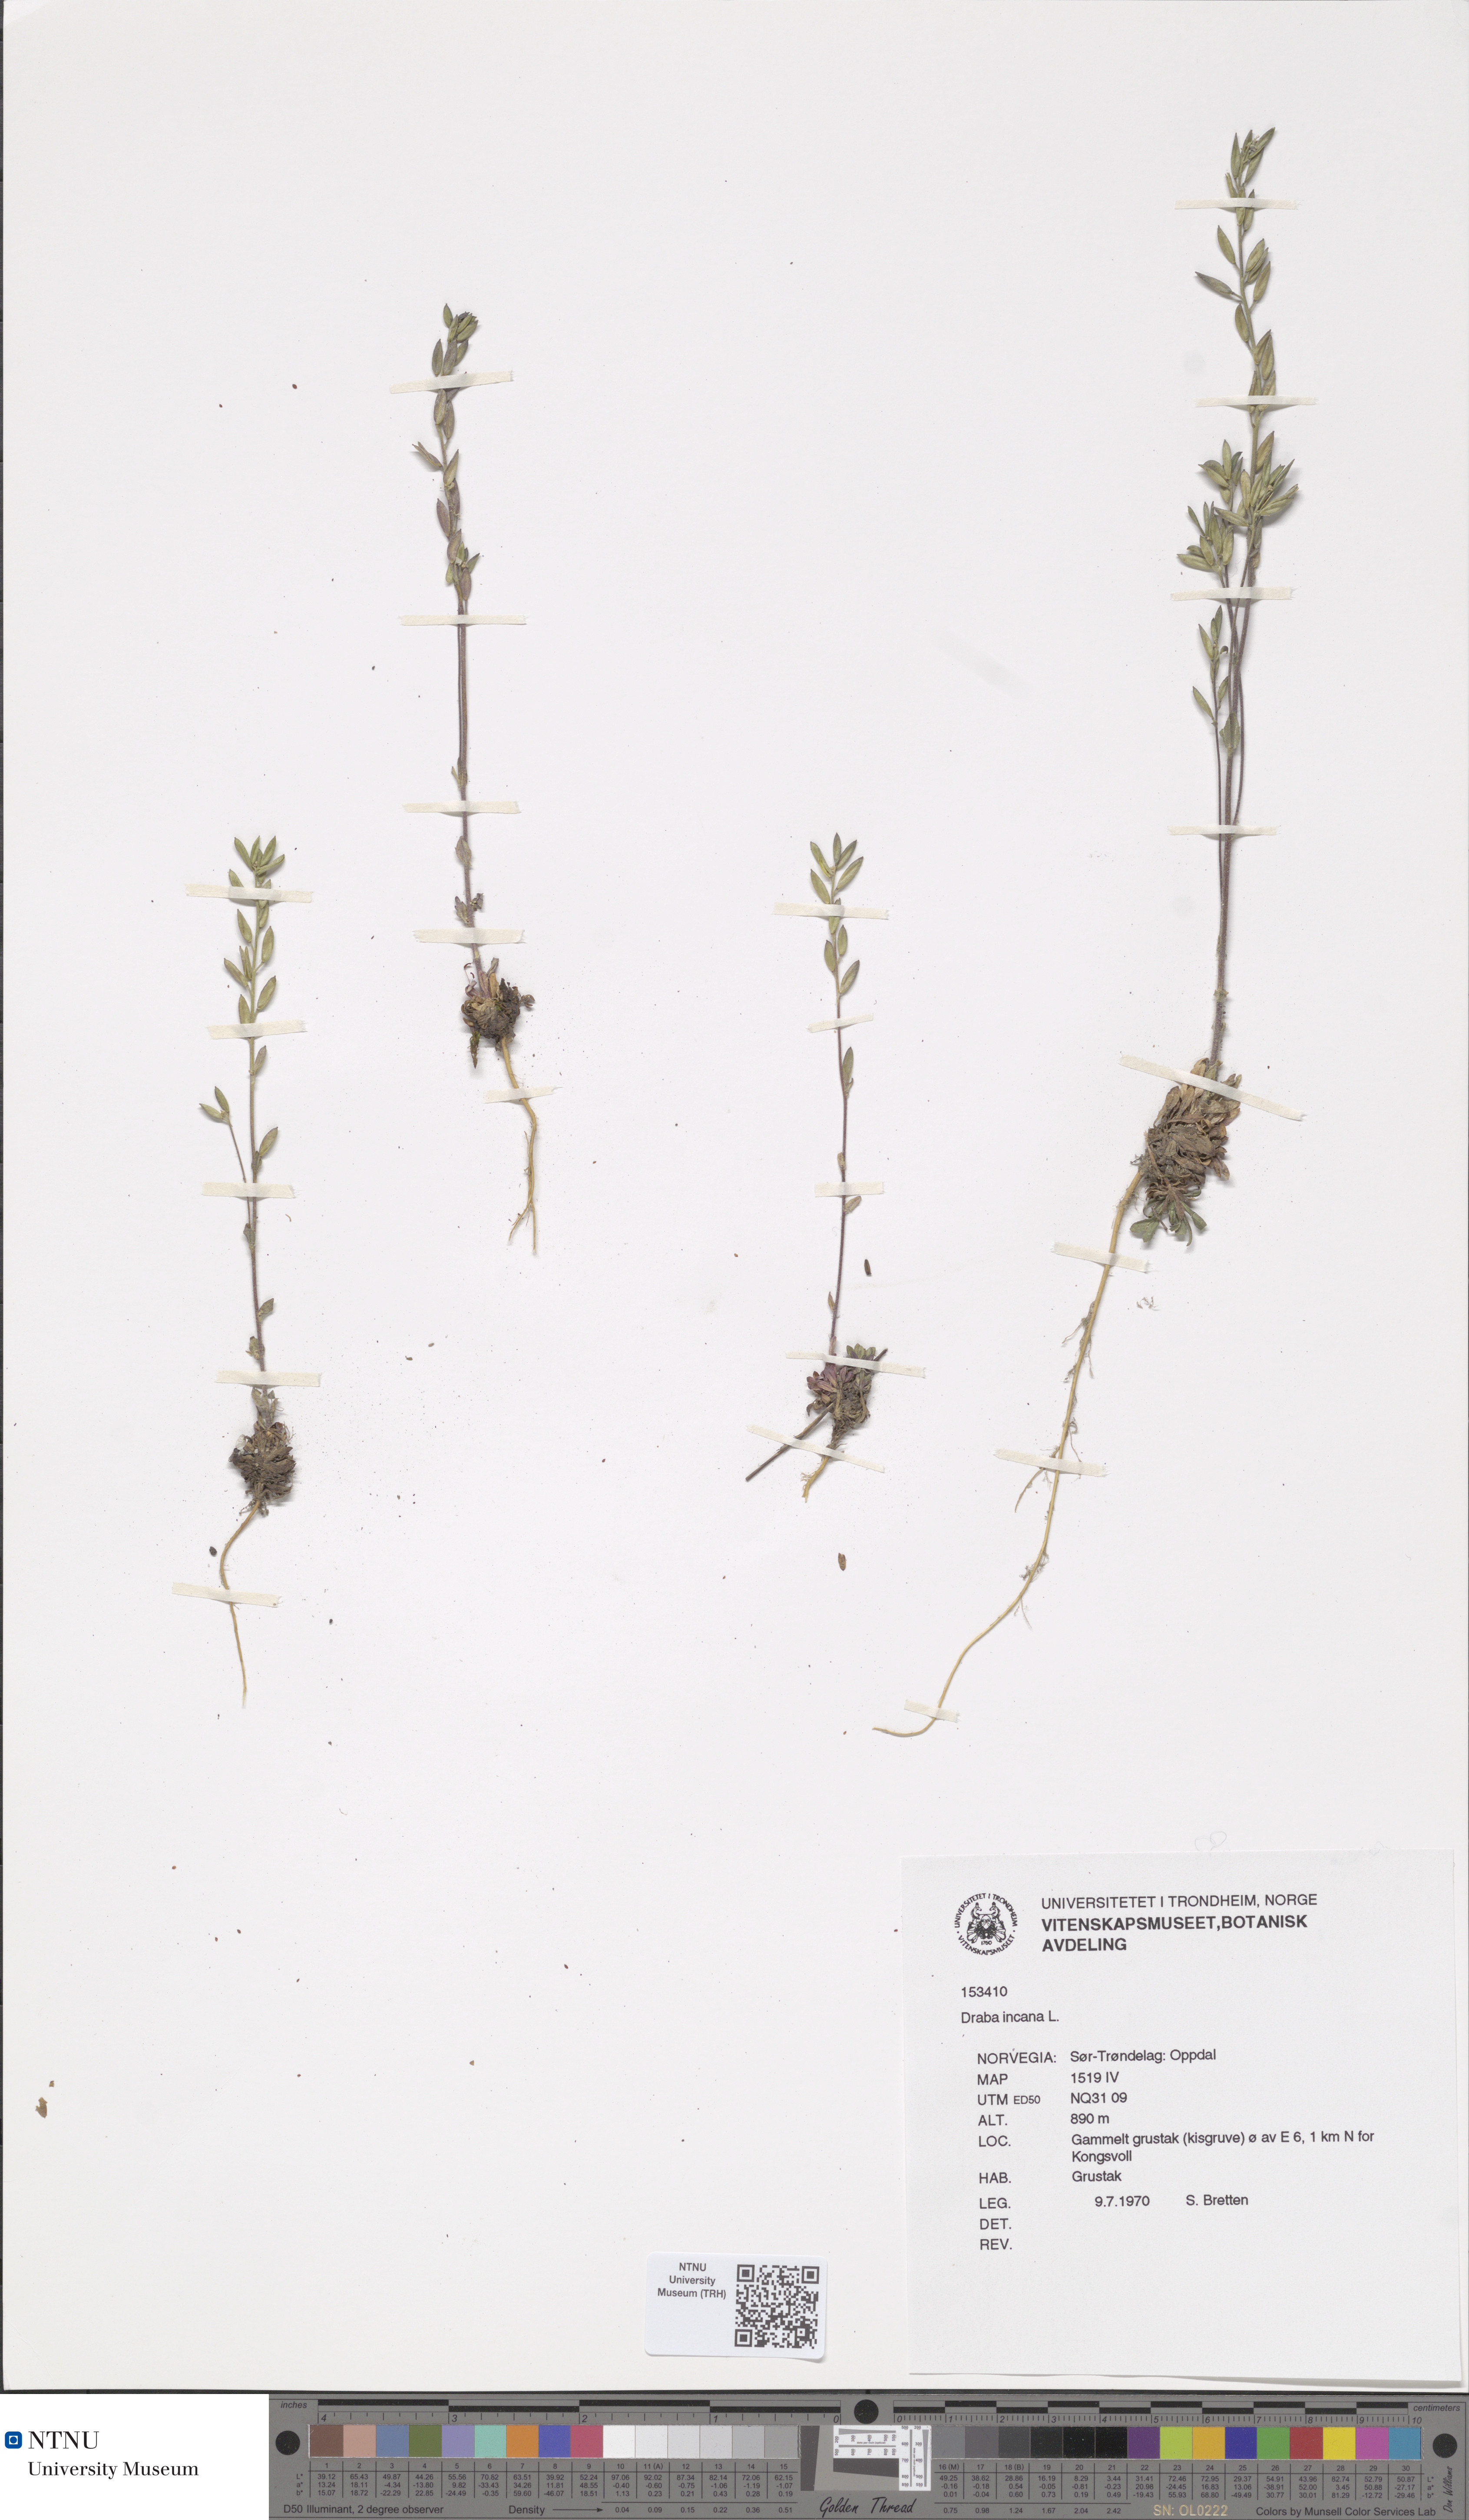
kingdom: Plantae
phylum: Tracheophyta
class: Magnoliopsida
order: Brassicales
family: Brassicaceae
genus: Draba
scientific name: Draba incana
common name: Hoary whitlow-grass
